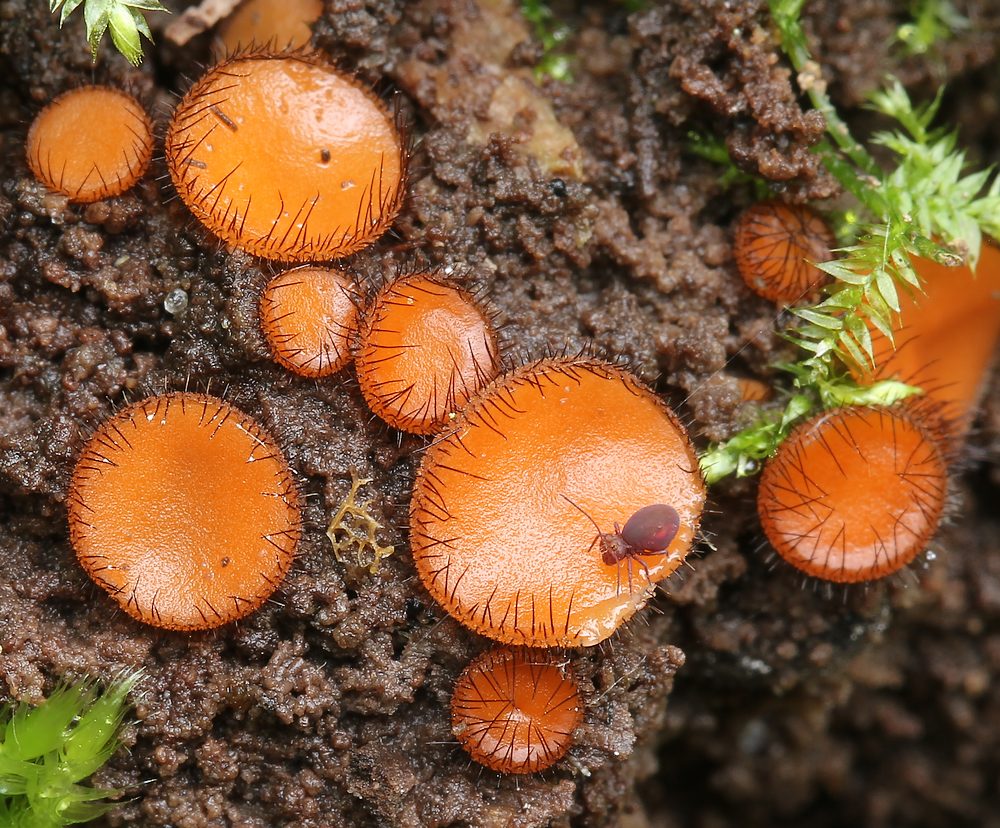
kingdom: Fungi
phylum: Ascomycota
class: Pezizomycetes
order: Pezizales
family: Pyronemataceae
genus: Scutellinia
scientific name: Scutellinia scutellata
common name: frynset skjoldbæger
